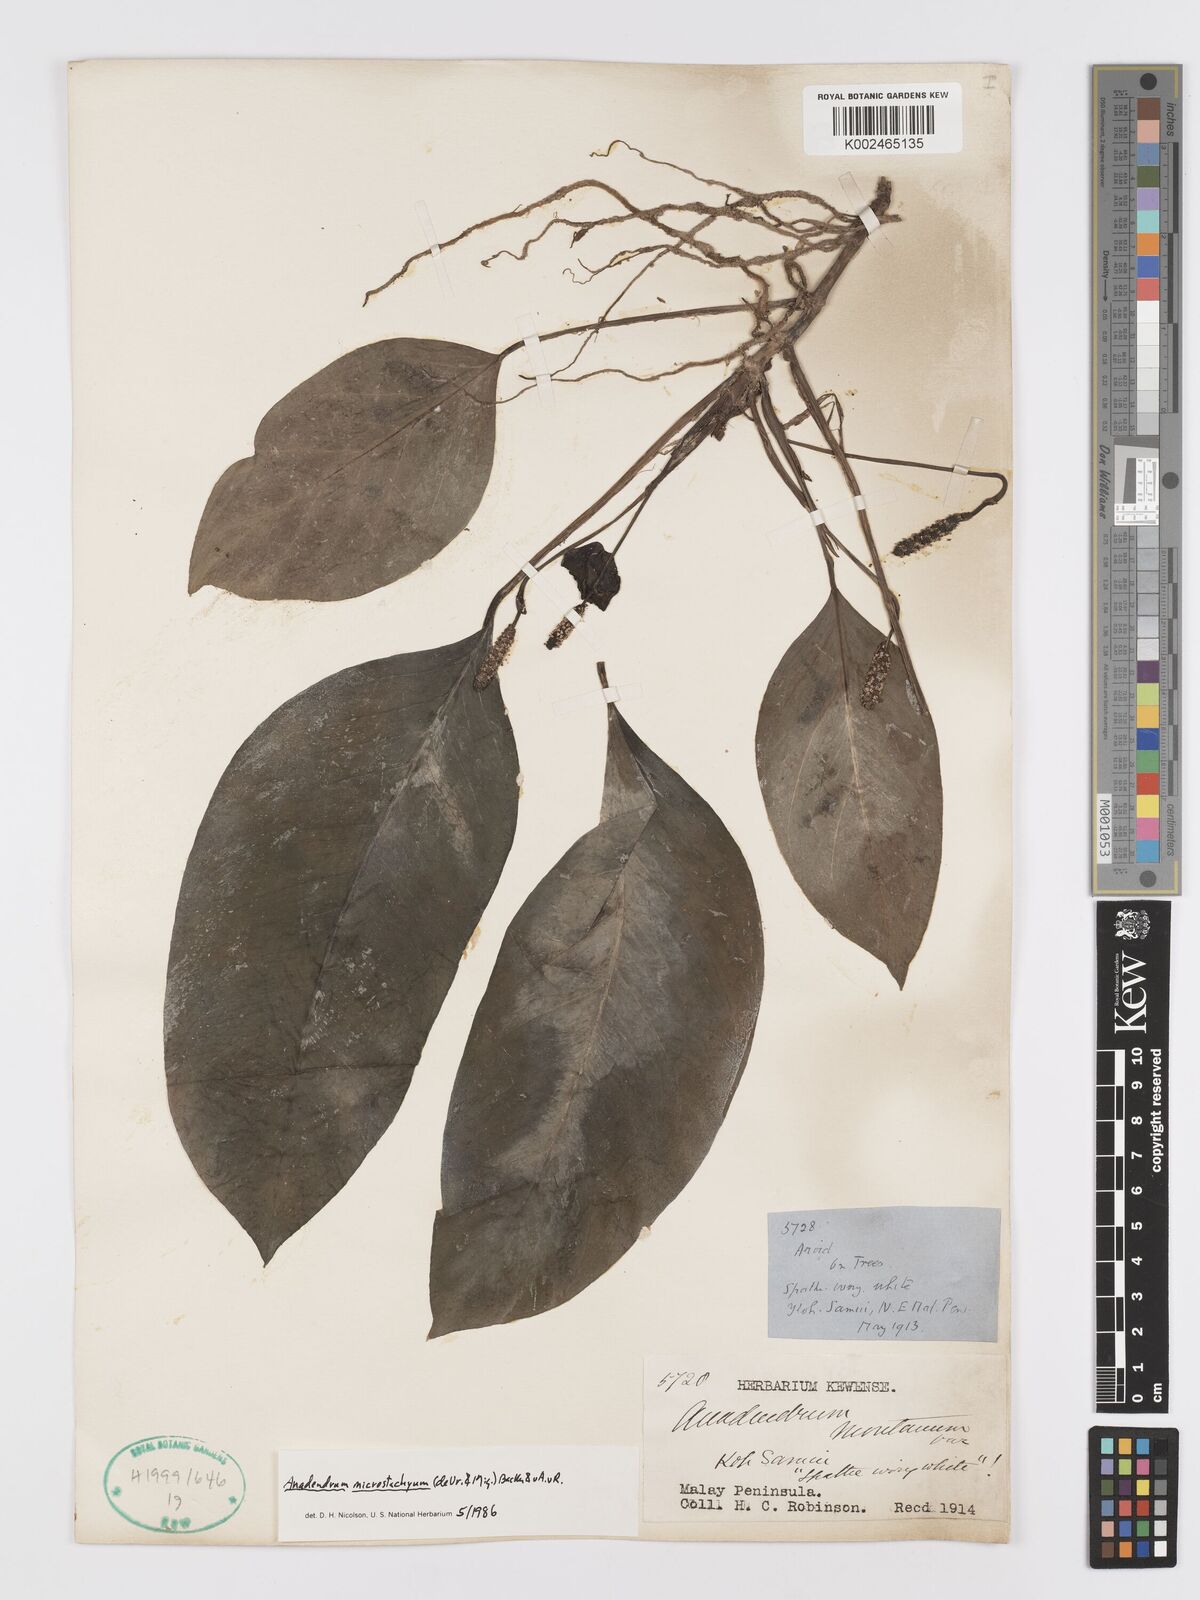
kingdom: Plantae
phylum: Tracheophyta
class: Liliopsida
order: Alismatales
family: Araceae
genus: Anadendrum
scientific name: Anadendrum microstachyum
